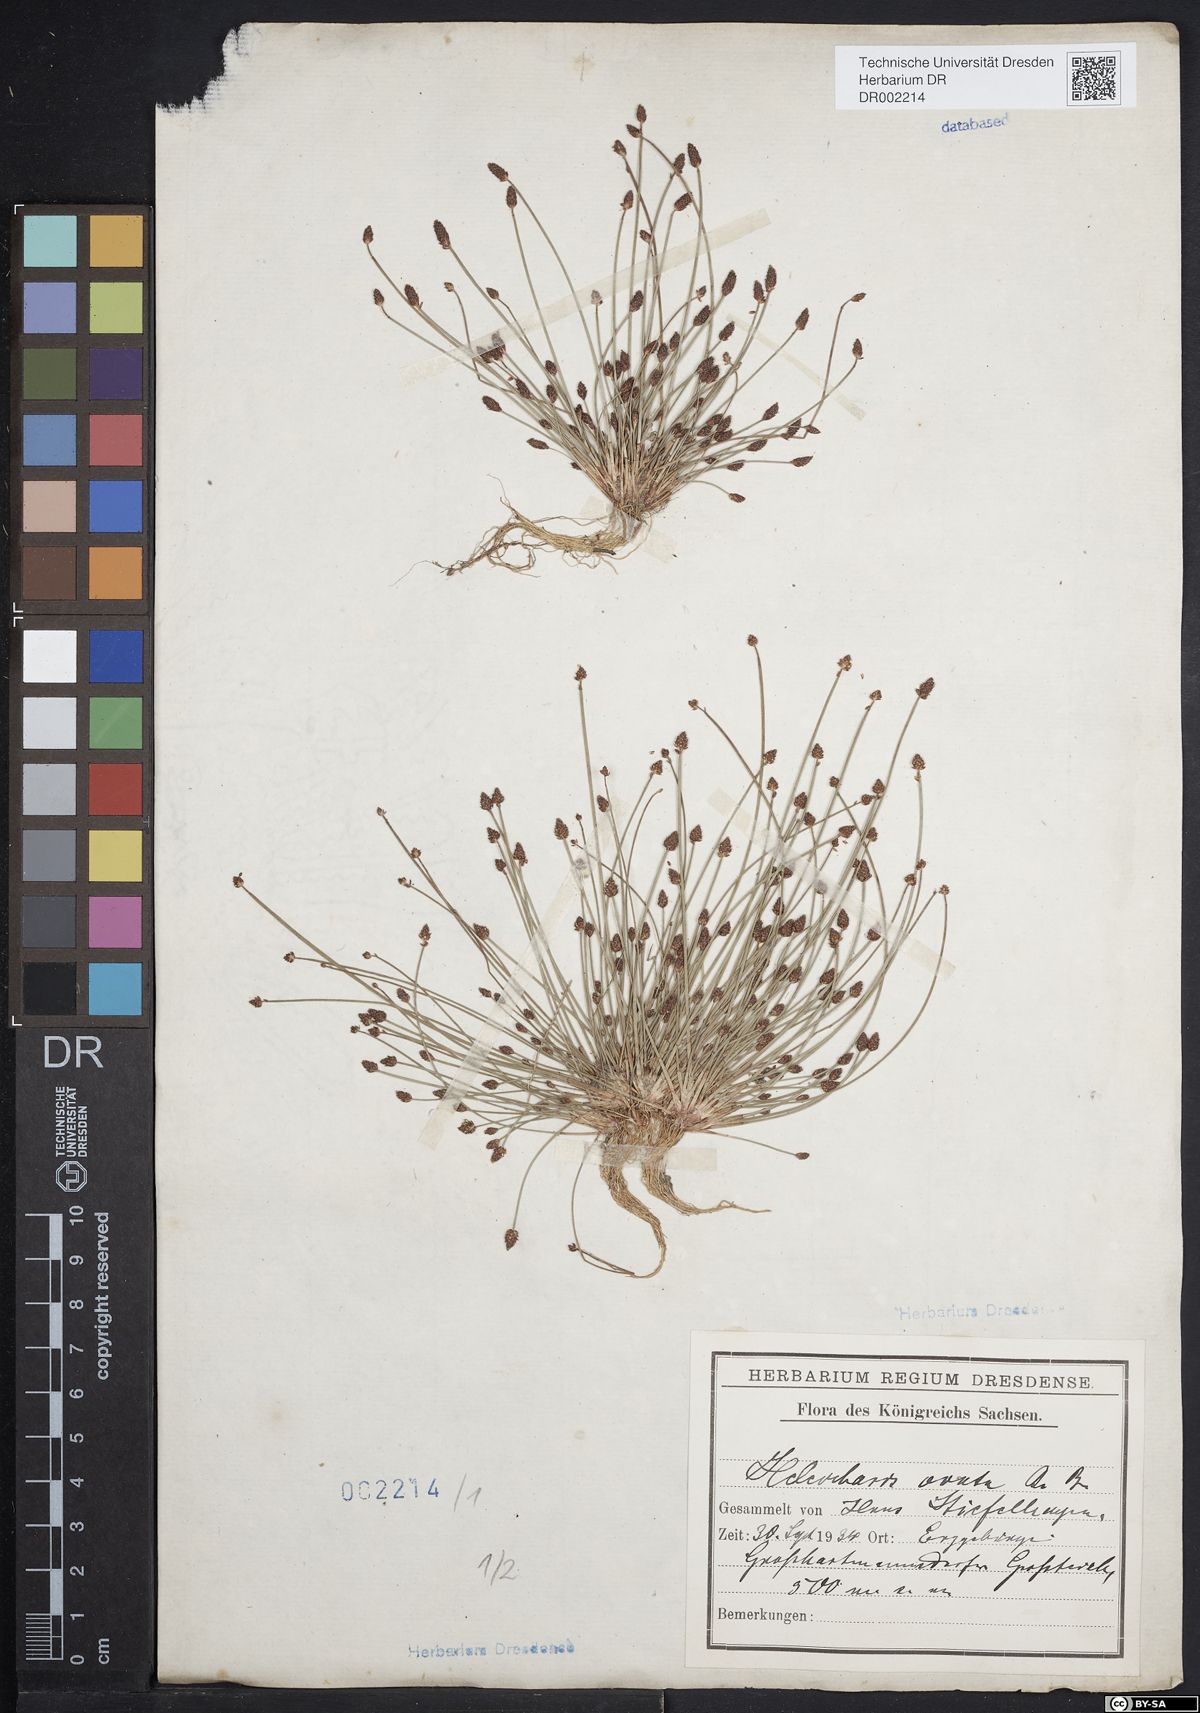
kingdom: Plantae
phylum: Tracheophyta
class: Liliopsida
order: Poales
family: Cyperaceae
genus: Eleocharis
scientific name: Eleocharis ovata
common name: Oval spike-rush
